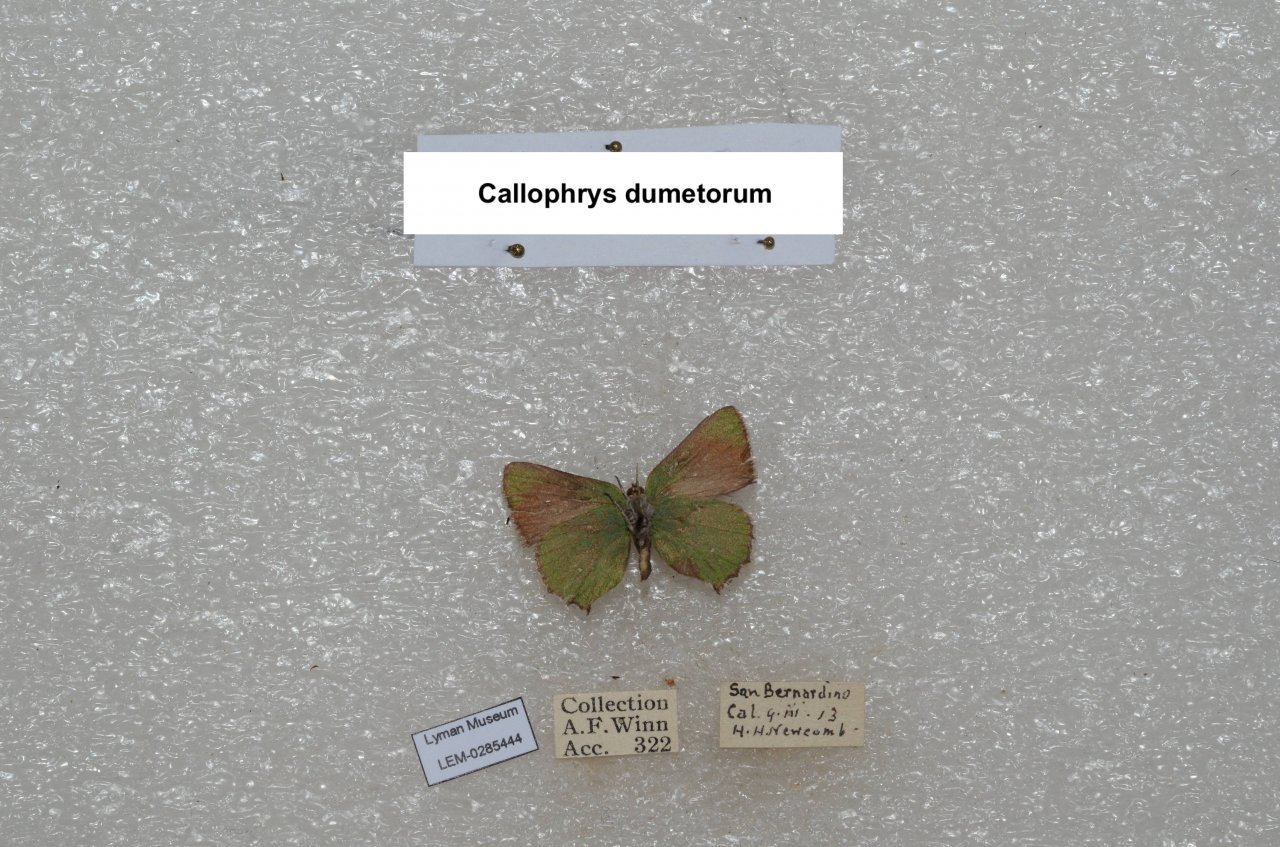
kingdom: Animalia
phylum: Arthropoda
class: Insecta
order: Lepidoptera
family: Lycaenidae
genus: Callophrys
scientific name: Callophrys dumetorum
